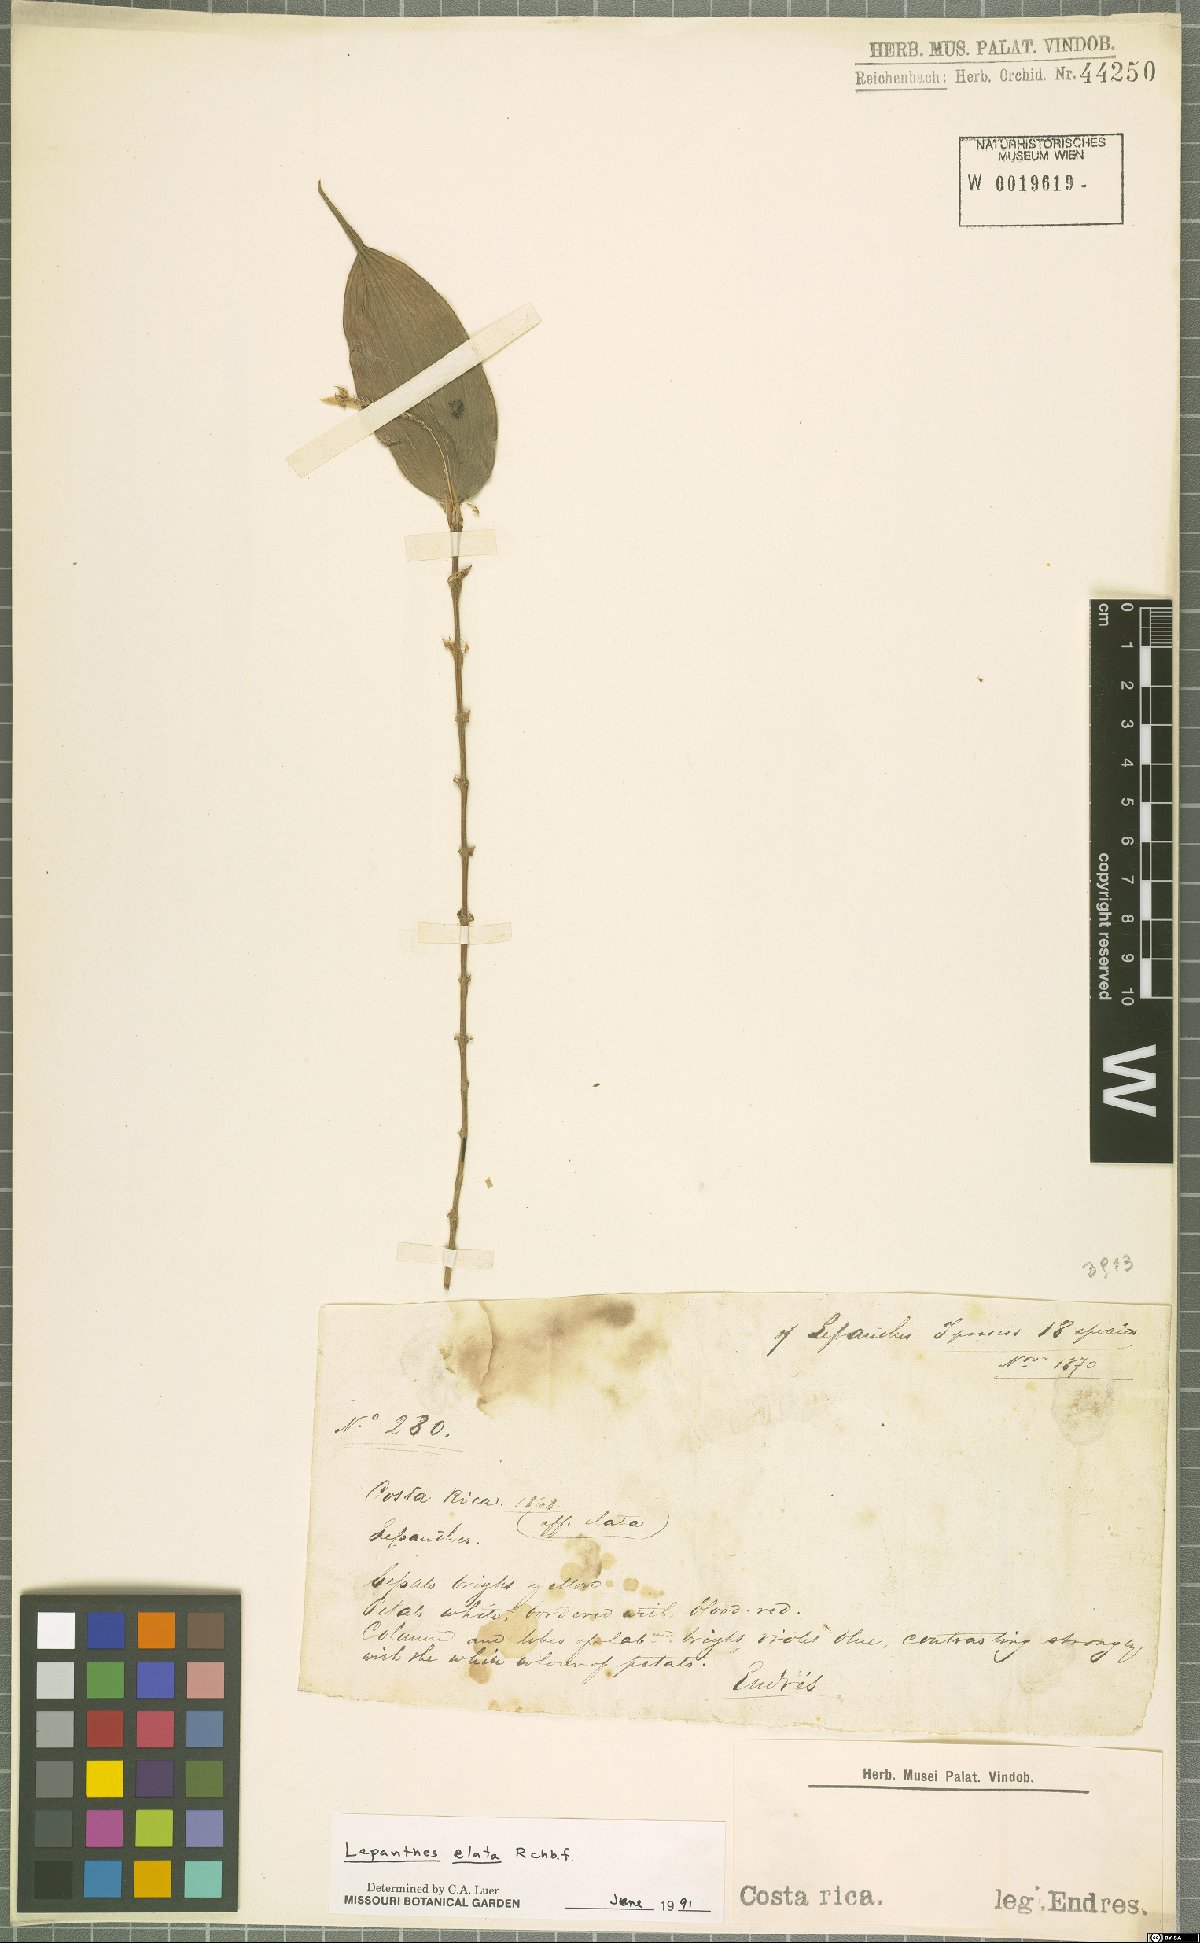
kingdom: Plantae
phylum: Tracheophyta
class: Liliopsida
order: Asparagales
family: Orchidaceae
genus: Lepanthes
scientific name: Lepanthes elata
